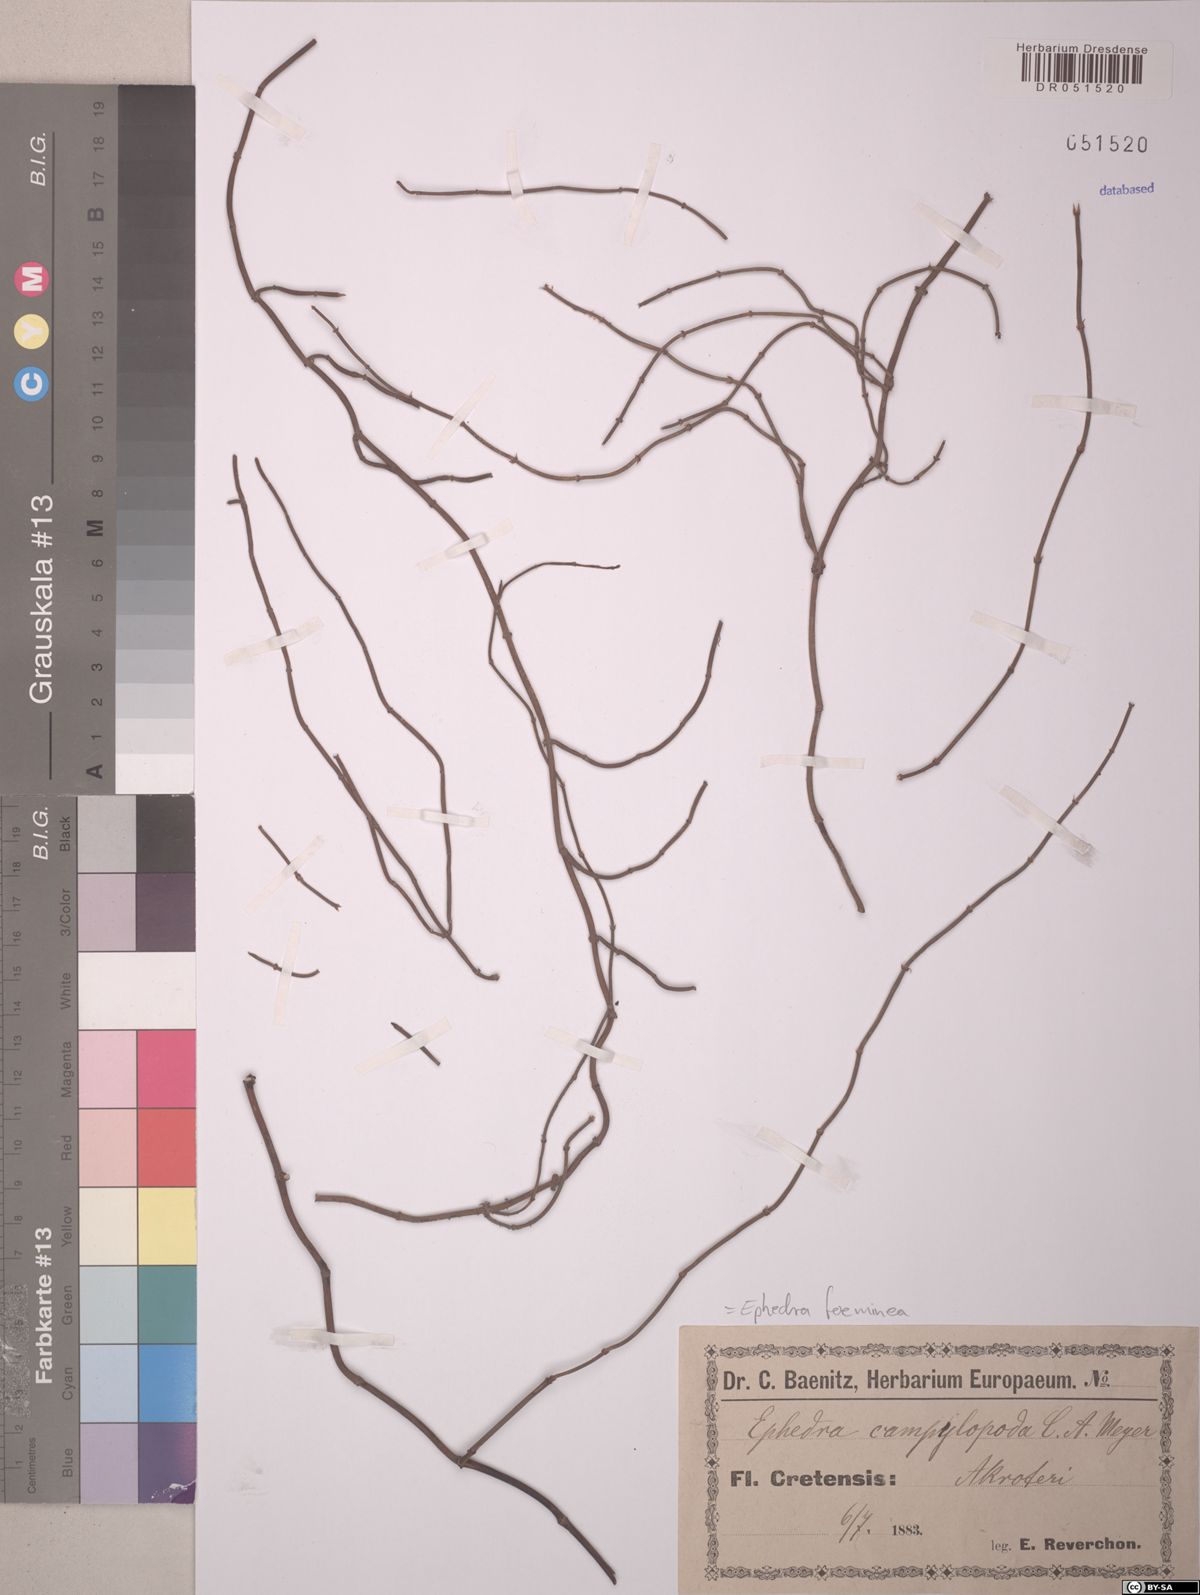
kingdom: Plantae
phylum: Tracheophyta
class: Gnetopsida
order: Ephedrales
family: Ephedraceae
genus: Ephedra
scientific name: Ephedra foeminea
